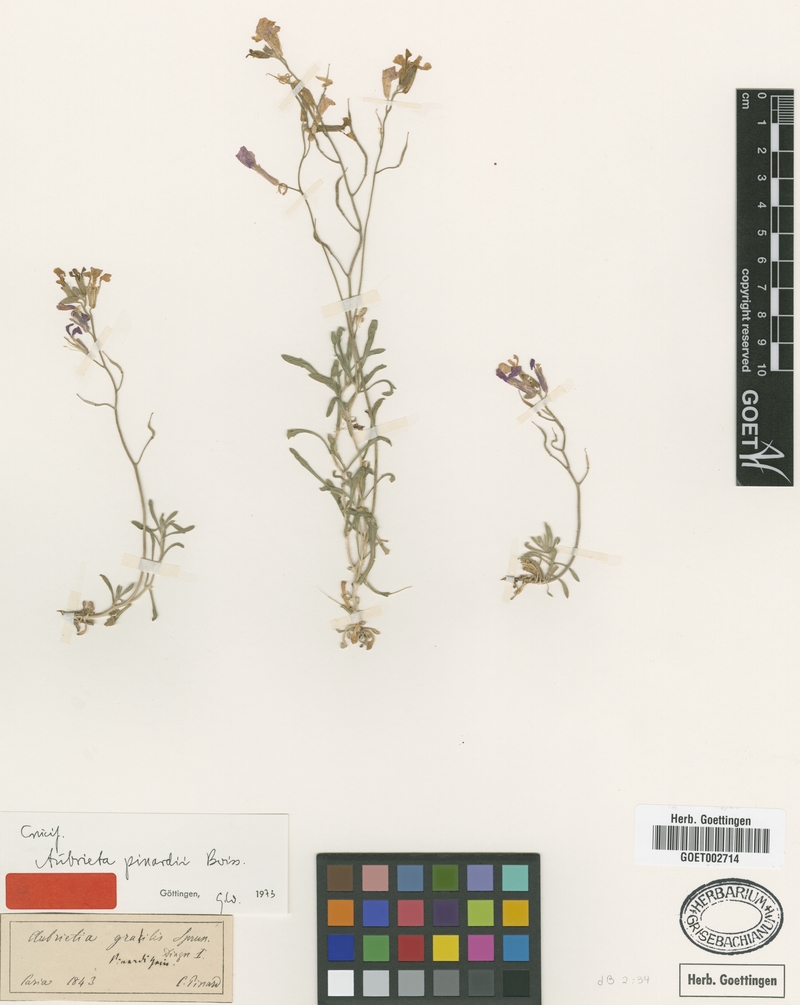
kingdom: Plantae
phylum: Tracheophyta
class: Magnoliopsida
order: Brassicales
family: Brassicaceae
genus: Aubrieta
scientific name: Aubrieta pinardii
